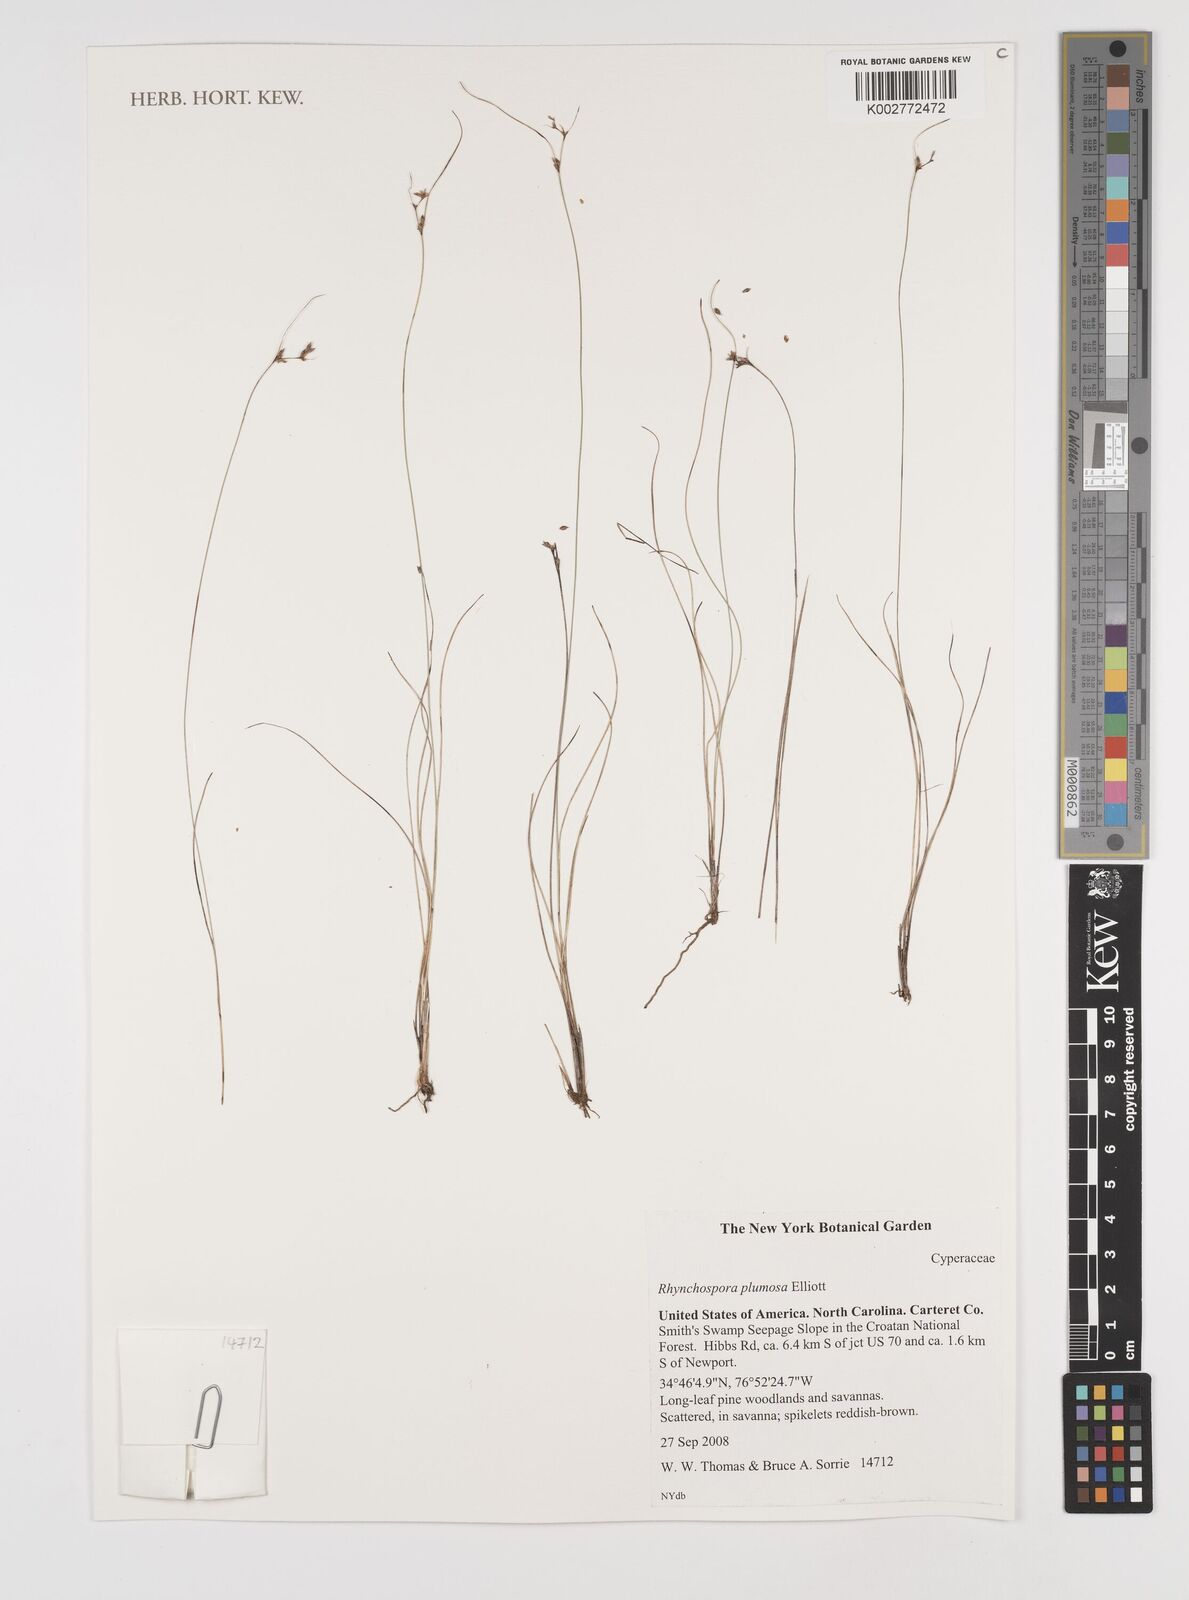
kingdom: Plantae
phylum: Tracheophyta
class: Liliopsida
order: Poales
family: Cyperaceae
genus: Rhynchospora
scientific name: Rhynchospora plumosa
